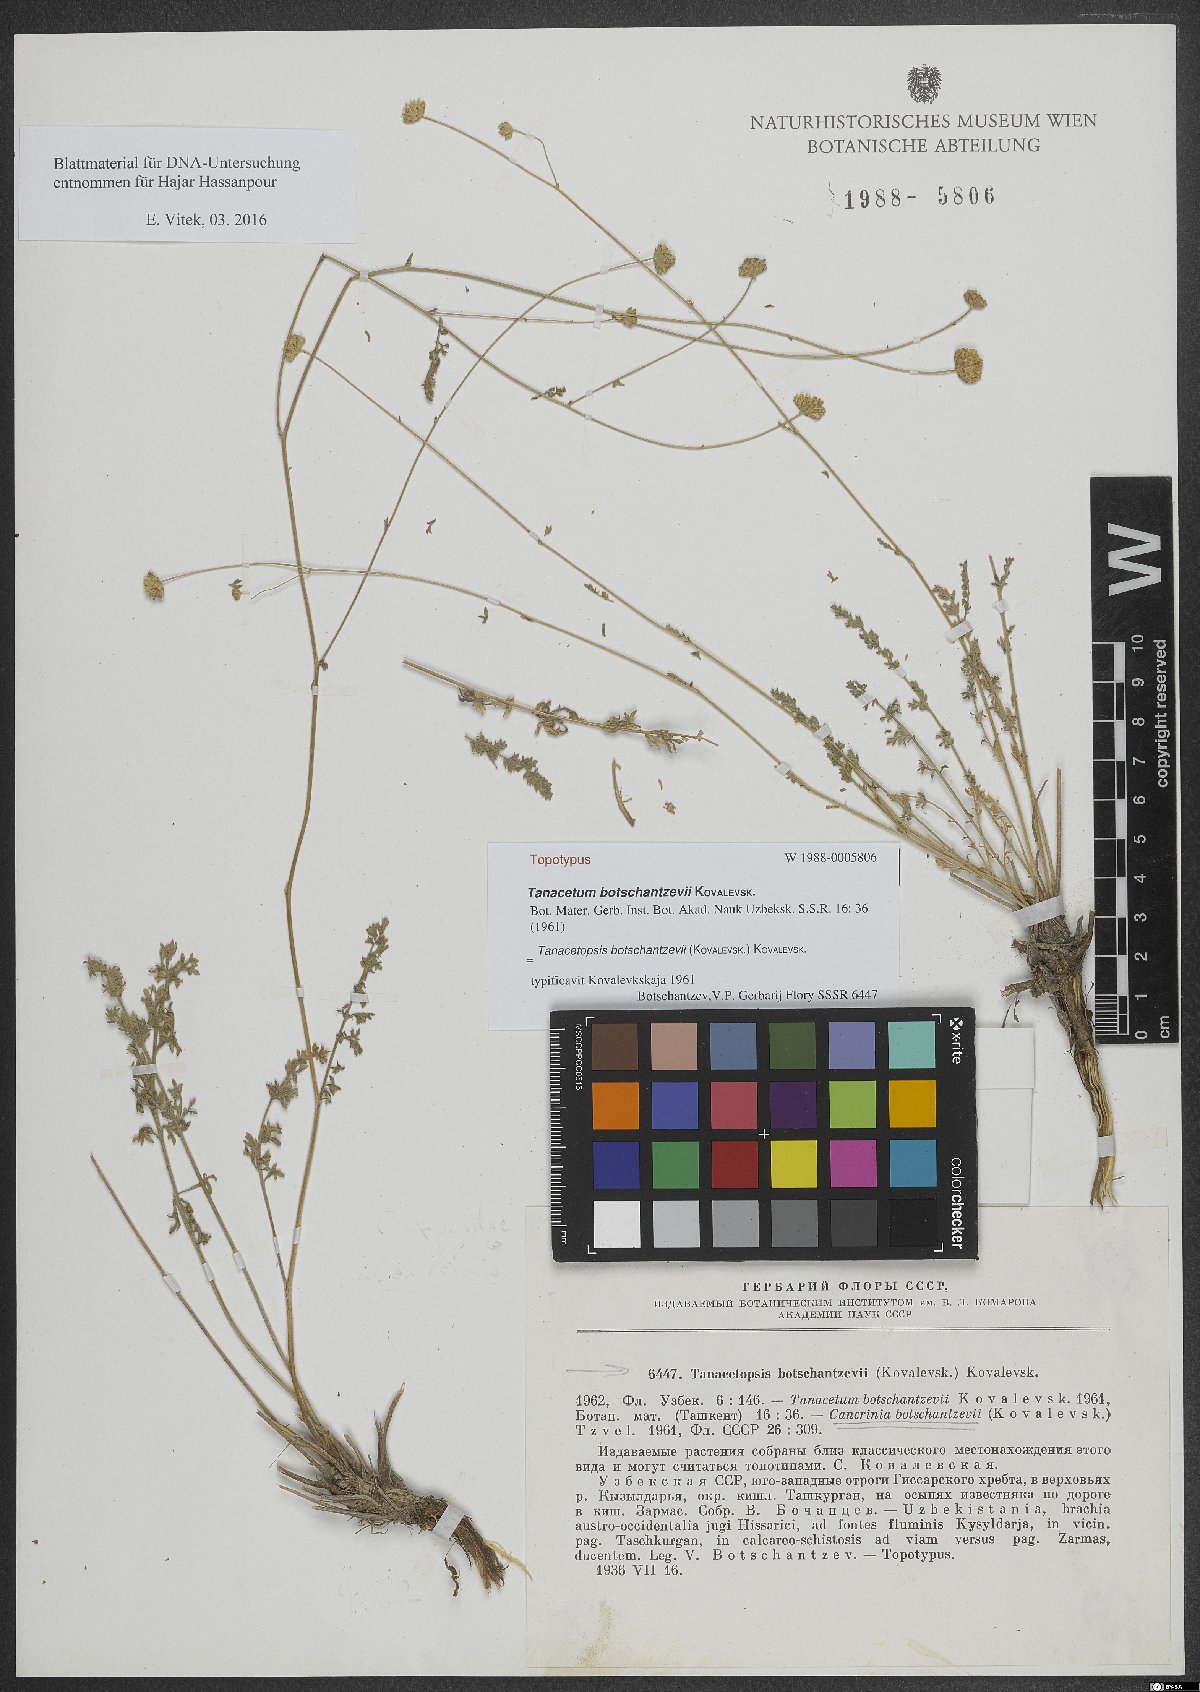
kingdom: Plantae
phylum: Tracheophyta
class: Magnoliopsida
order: Asterales
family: Asteraceae
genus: Tanacetopsis
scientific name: Tanacetopsis botschantzevii
